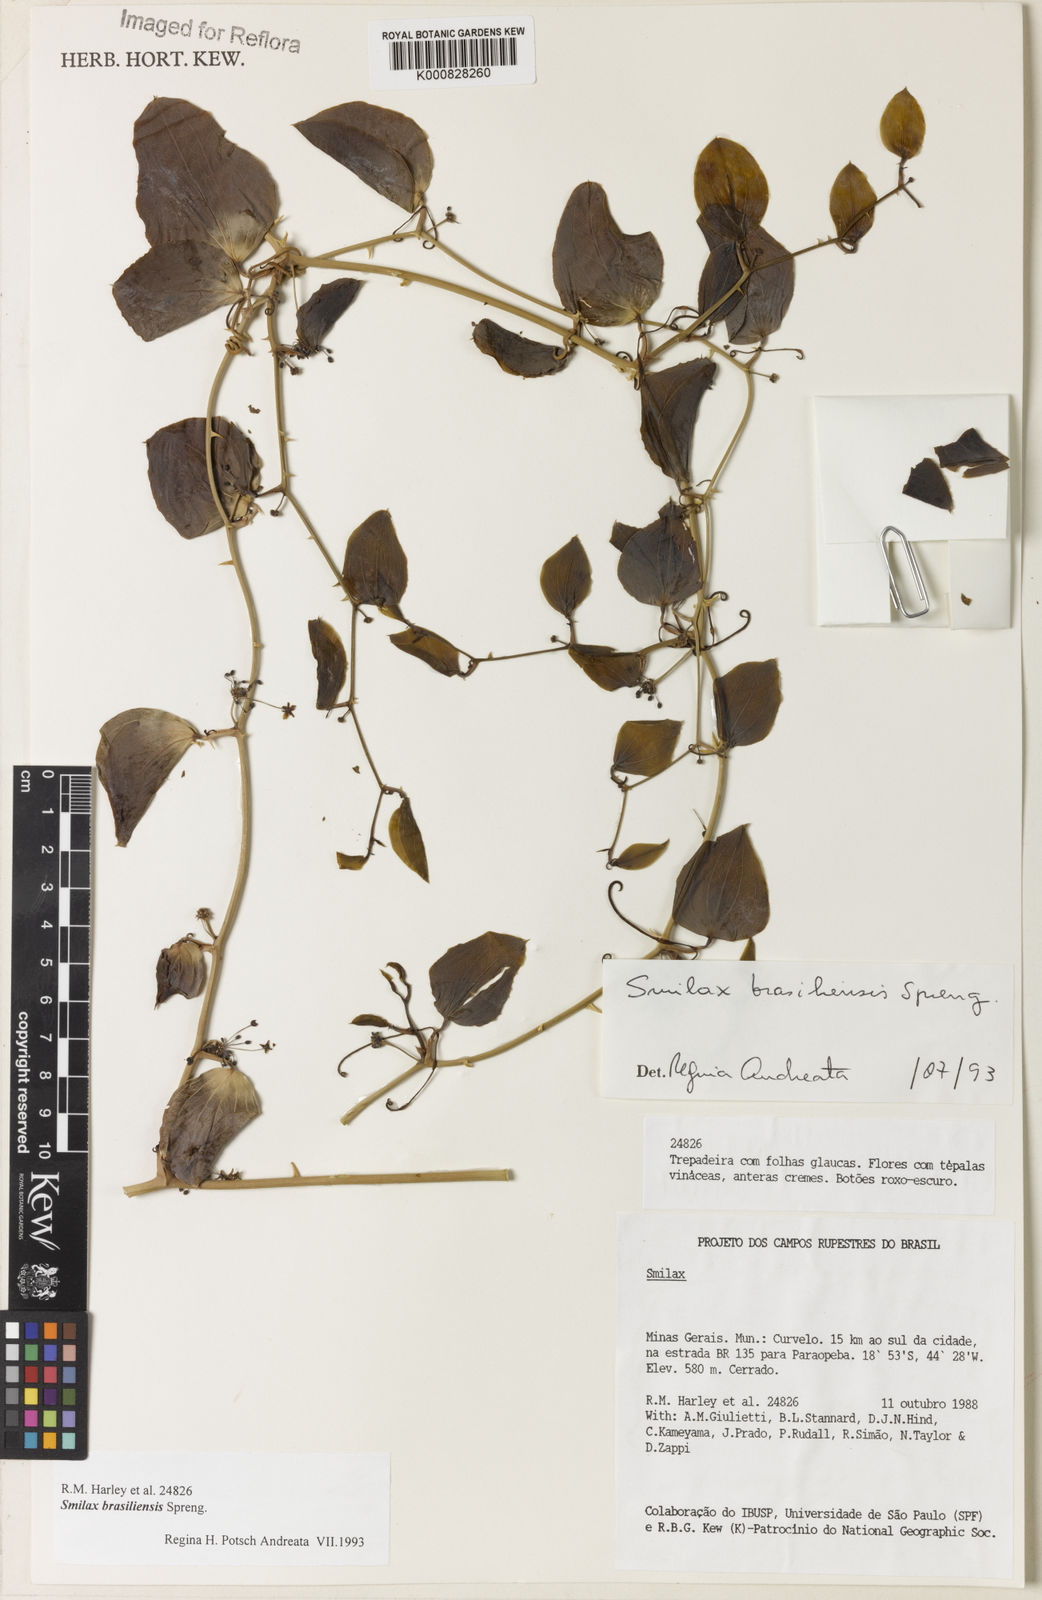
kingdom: Plantae
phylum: Tracheophyta
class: Liliopsida
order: Liliales
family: Smilacaceae
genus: Smilax
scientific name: Smilax brasiliensis
